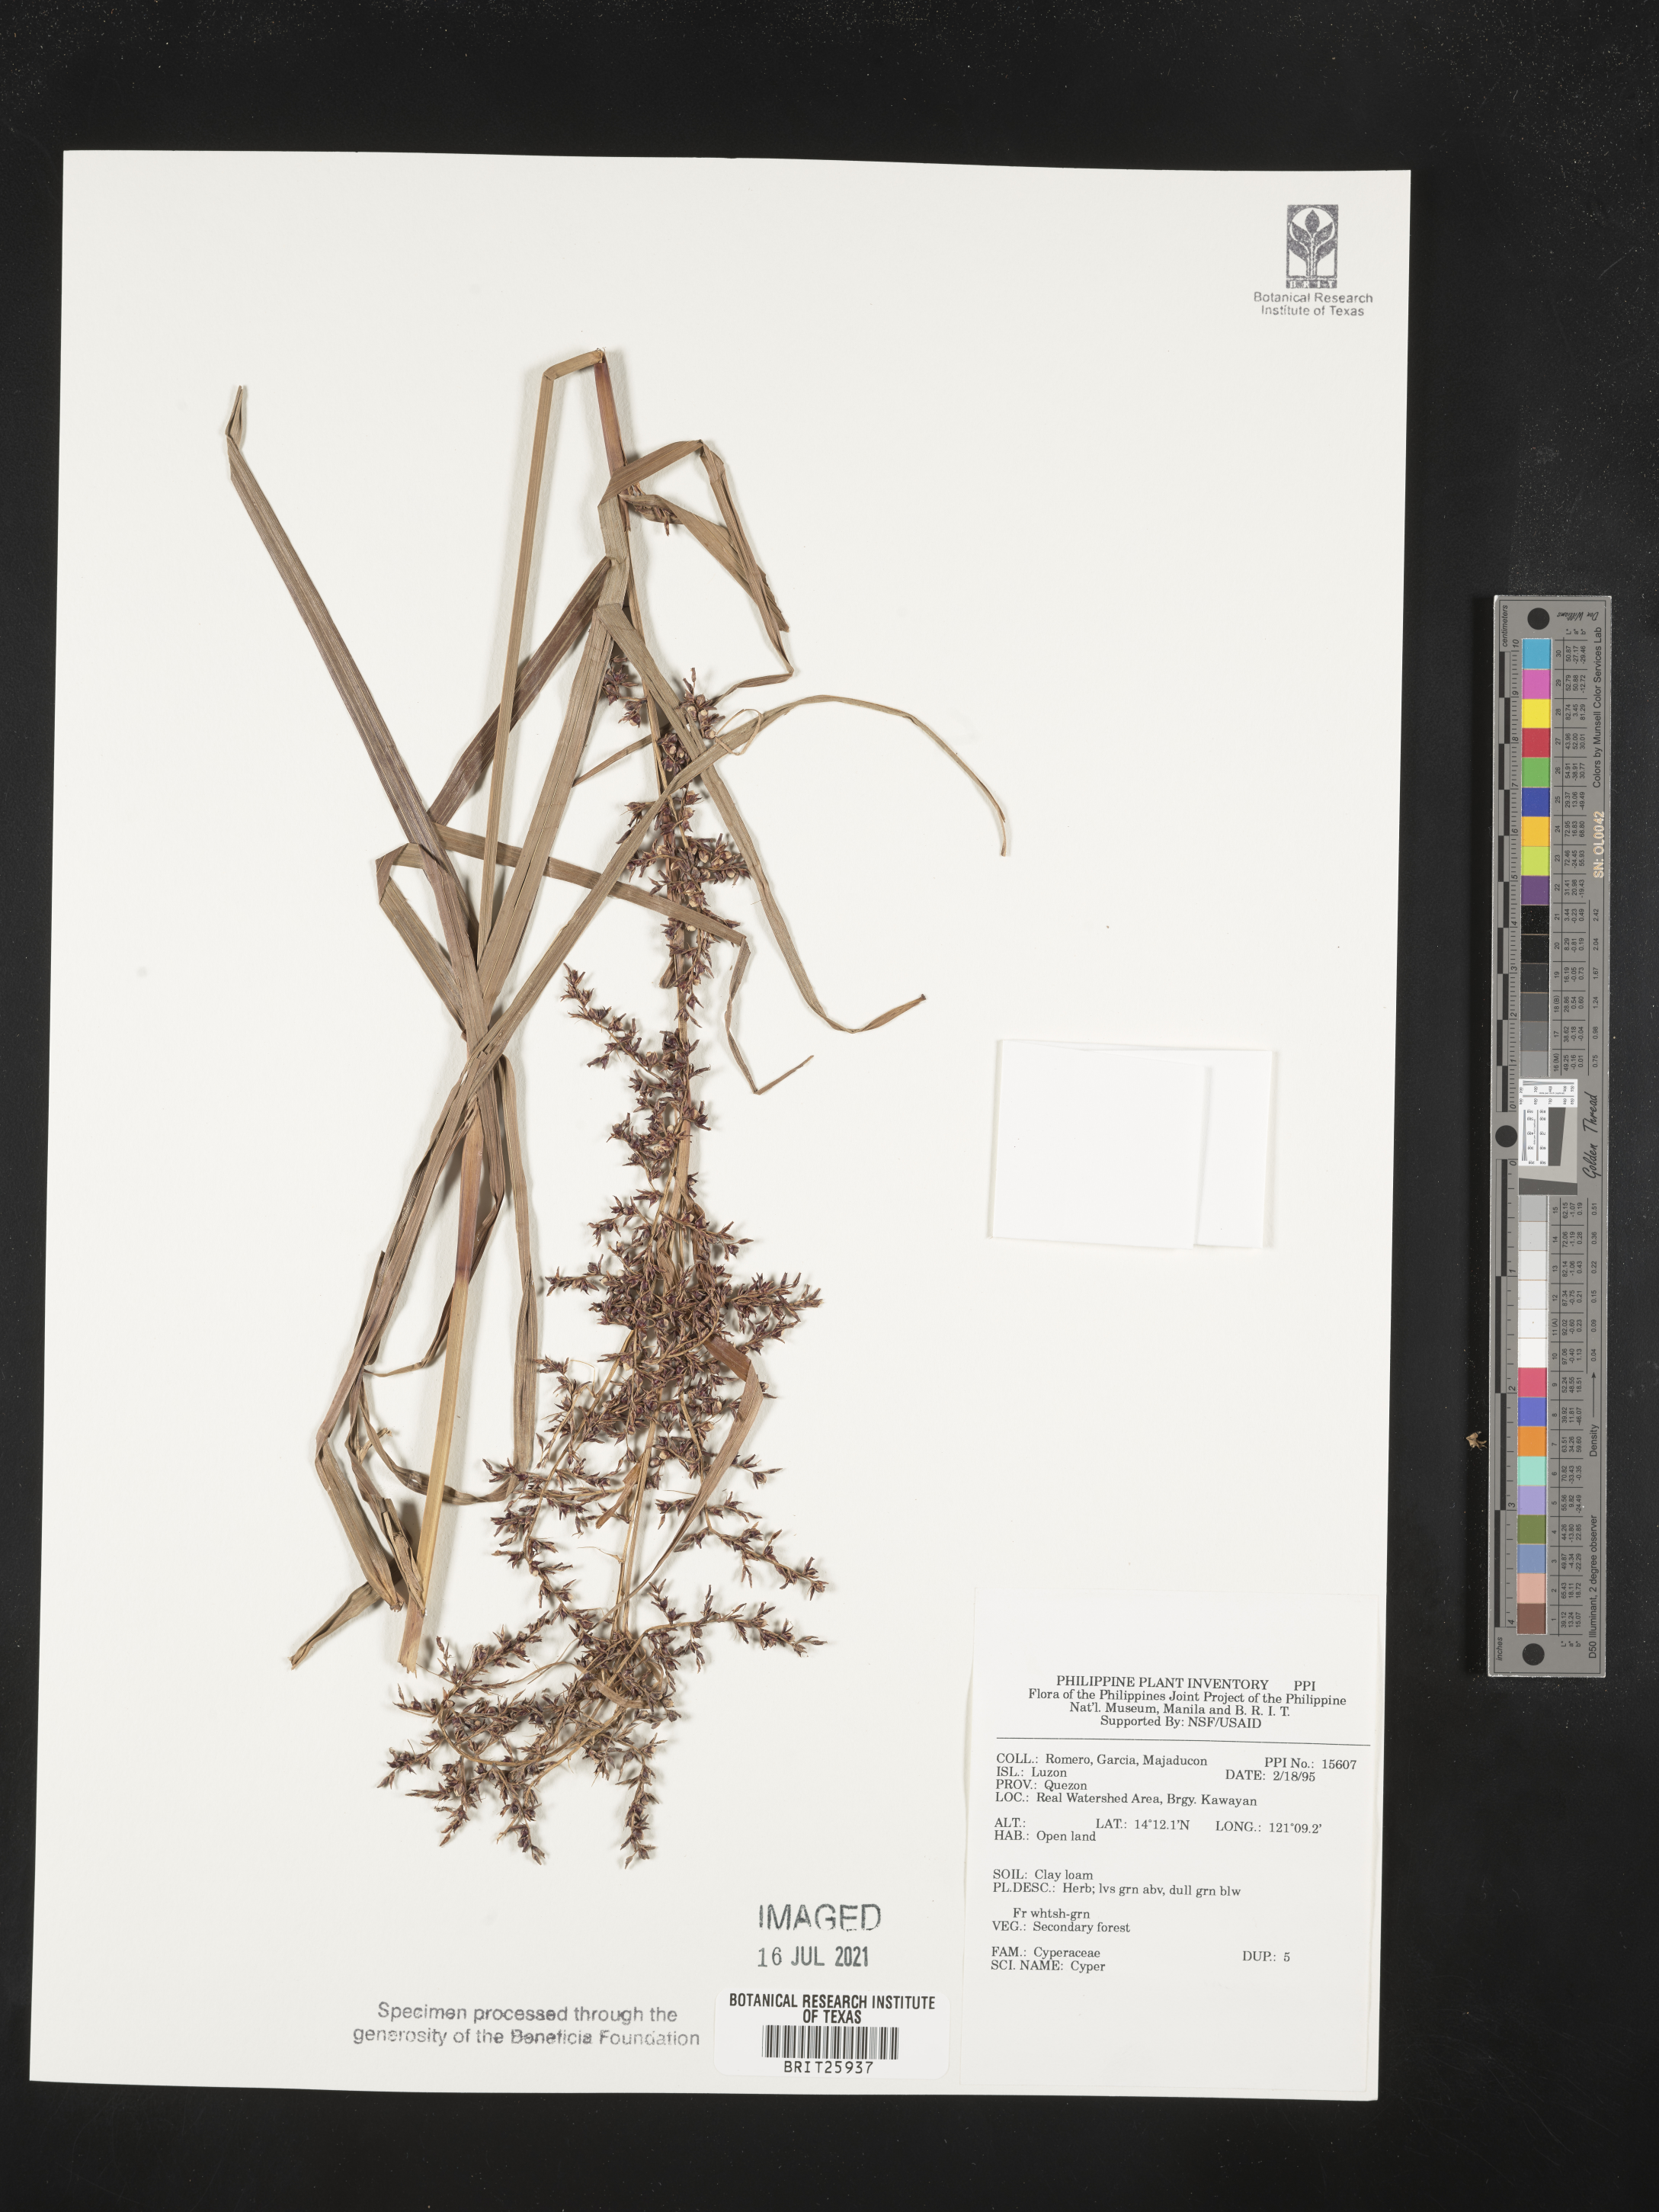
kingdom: Plantae
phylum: Tracheophyta
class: Liliopsida
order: Poales
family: Cyperaceae
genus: Cyperus
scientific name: Cyperus
